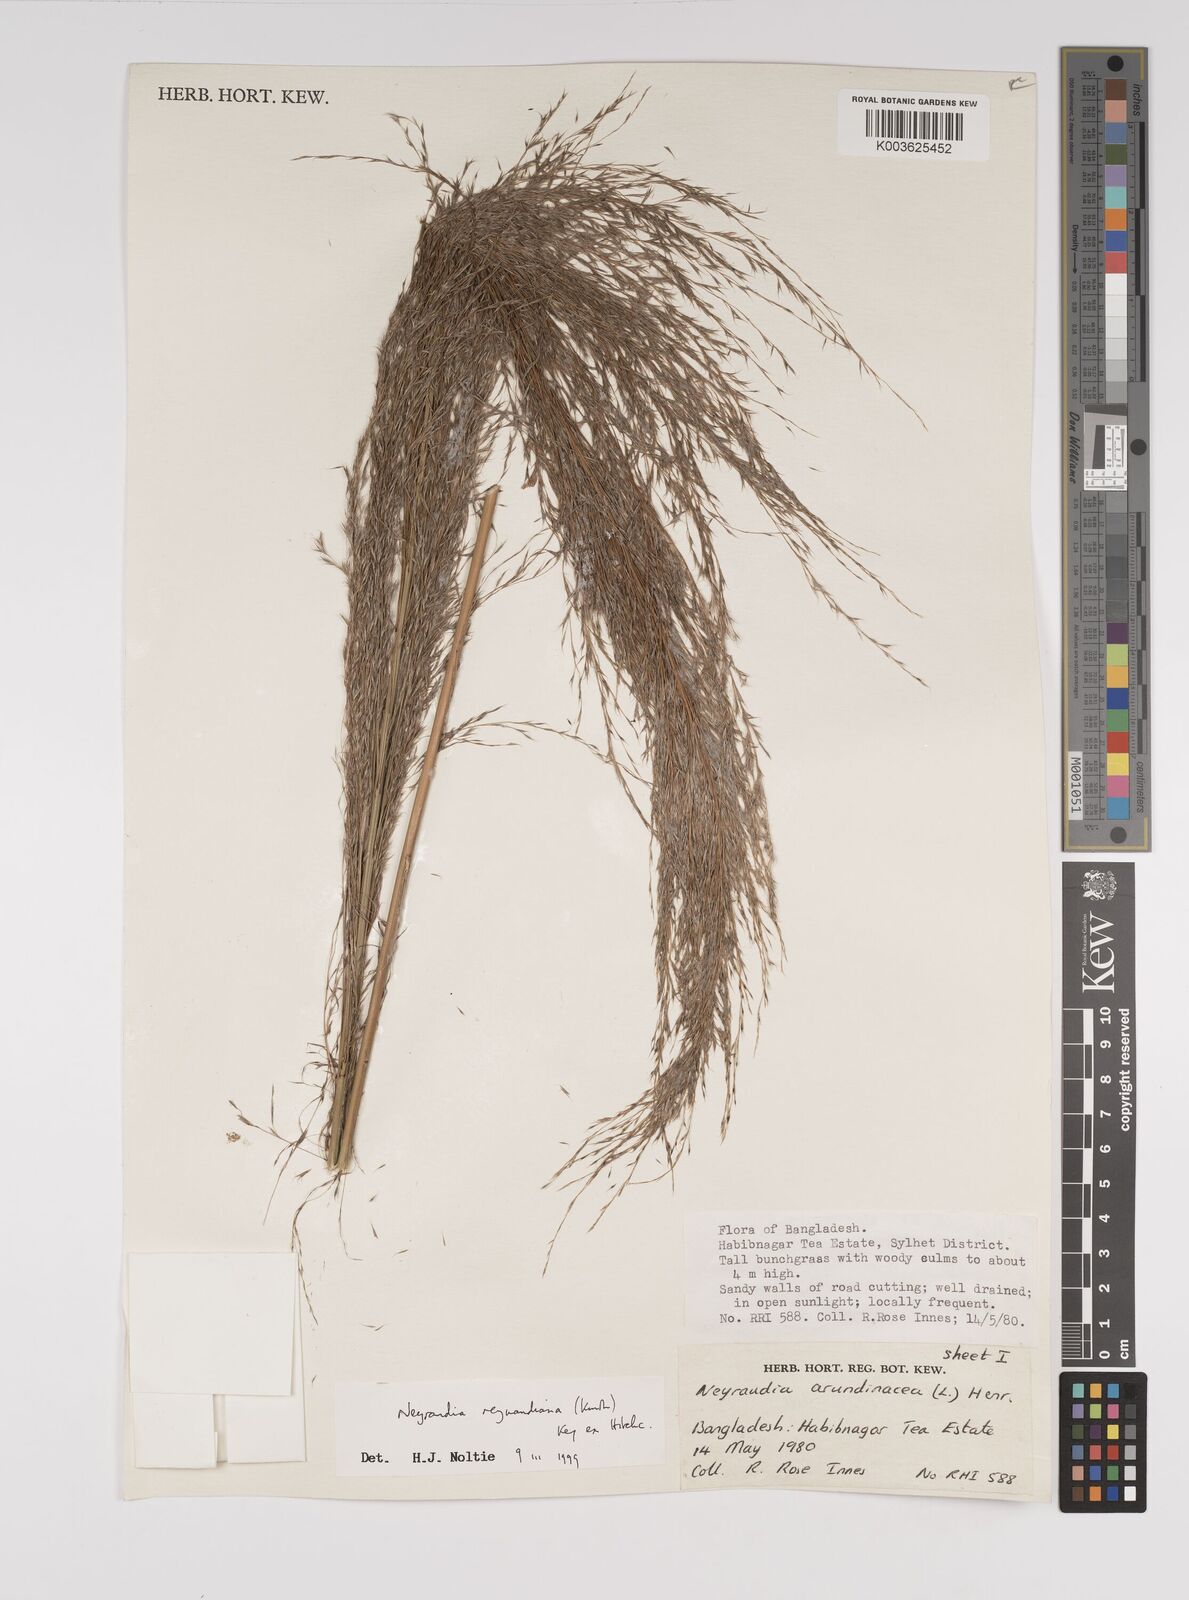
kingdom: Plantae
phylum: Tracheophyta
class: Liliopsida
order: Poales
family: Poaceae
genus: Neyraudia
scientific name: Neyraudia reynaudiana
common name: Silkreed
